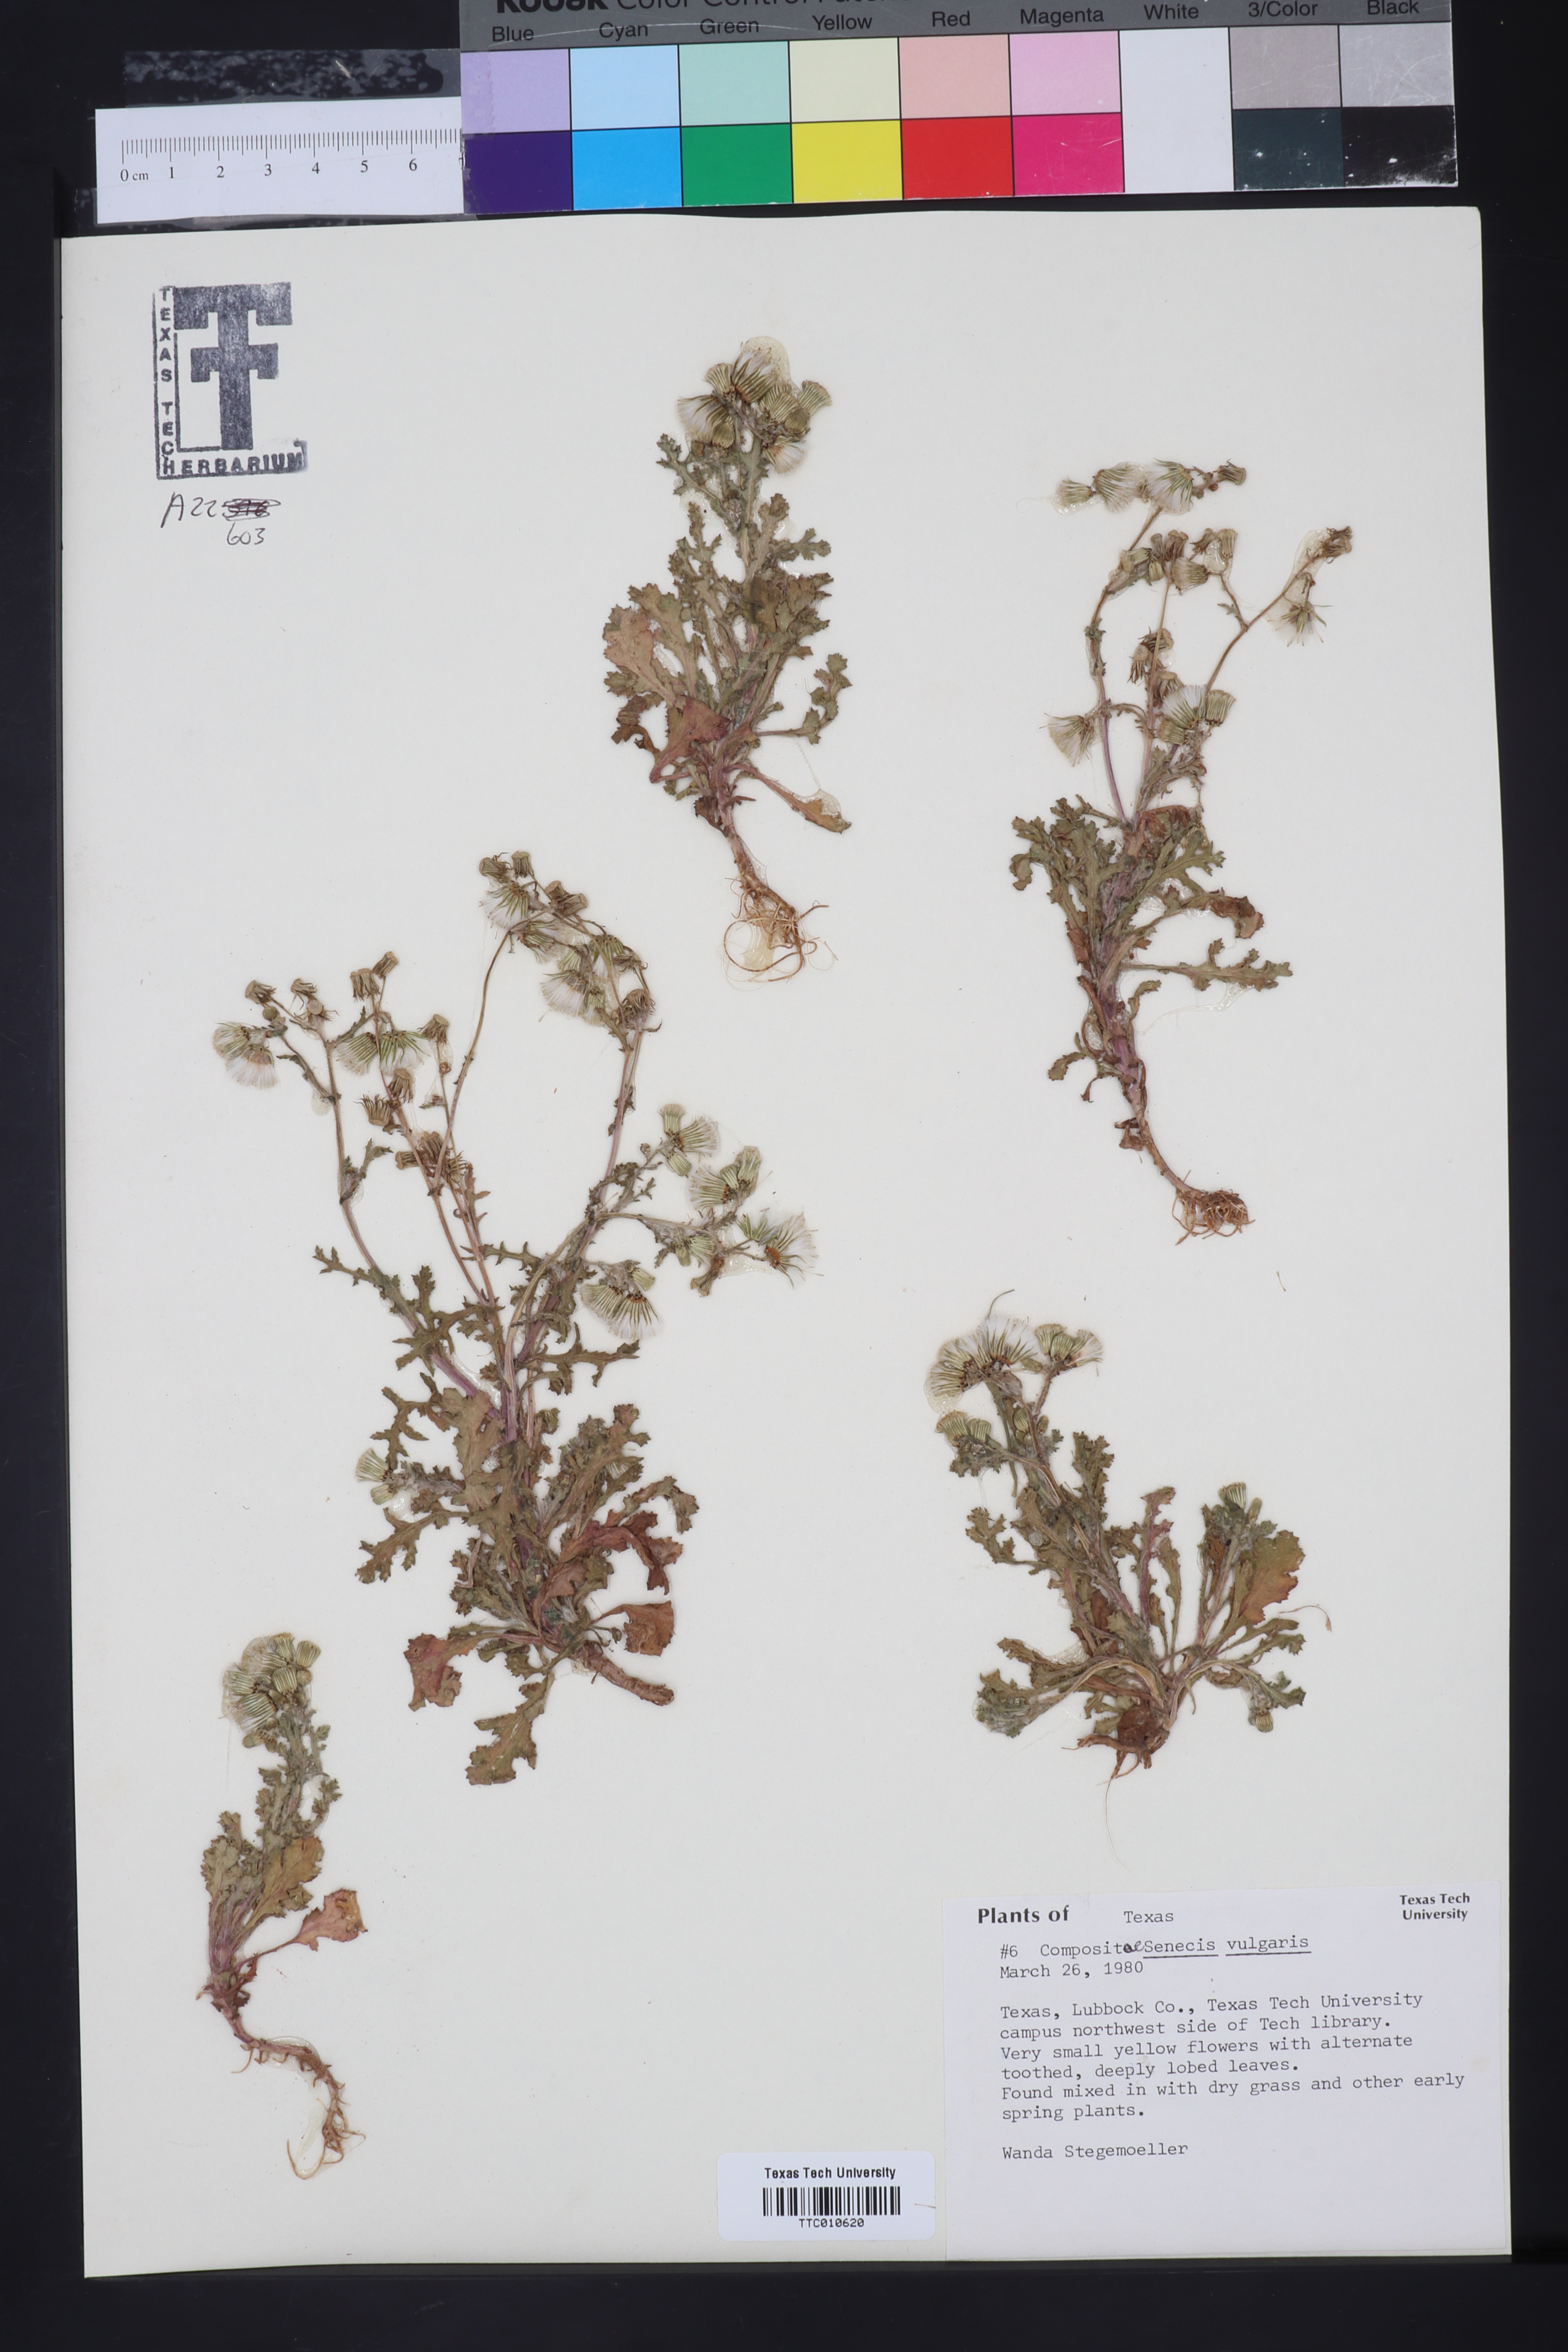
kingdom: Plantae
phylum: Tracheophyta
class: Magnoliopsida
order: Asterales
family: Asteraceae
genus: Senecio
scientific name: Senecio vulgaris
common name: Old-man-in-the-spring
